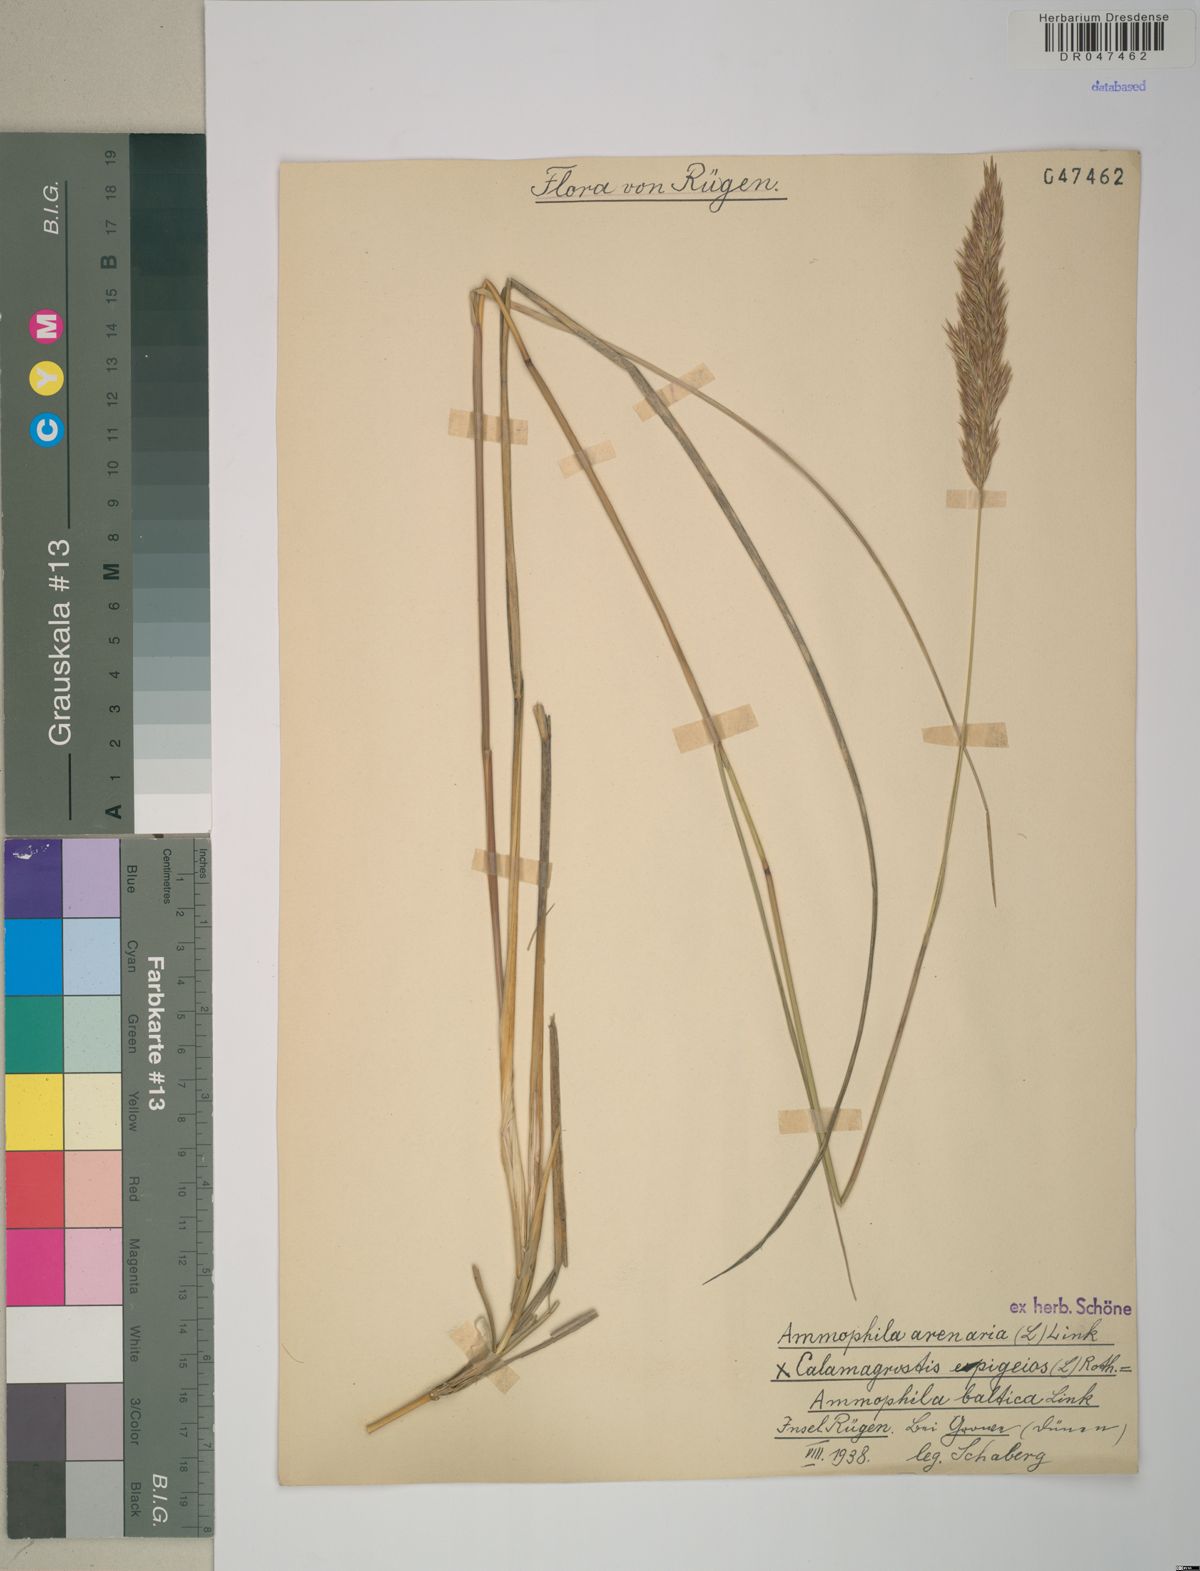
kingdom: Plantae
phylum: Tracheophyta
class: Liliopsida
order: Poales
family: Poaceae
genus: Calamagrostis
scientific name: Calamagrostis arenaria
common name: European beachgrass
